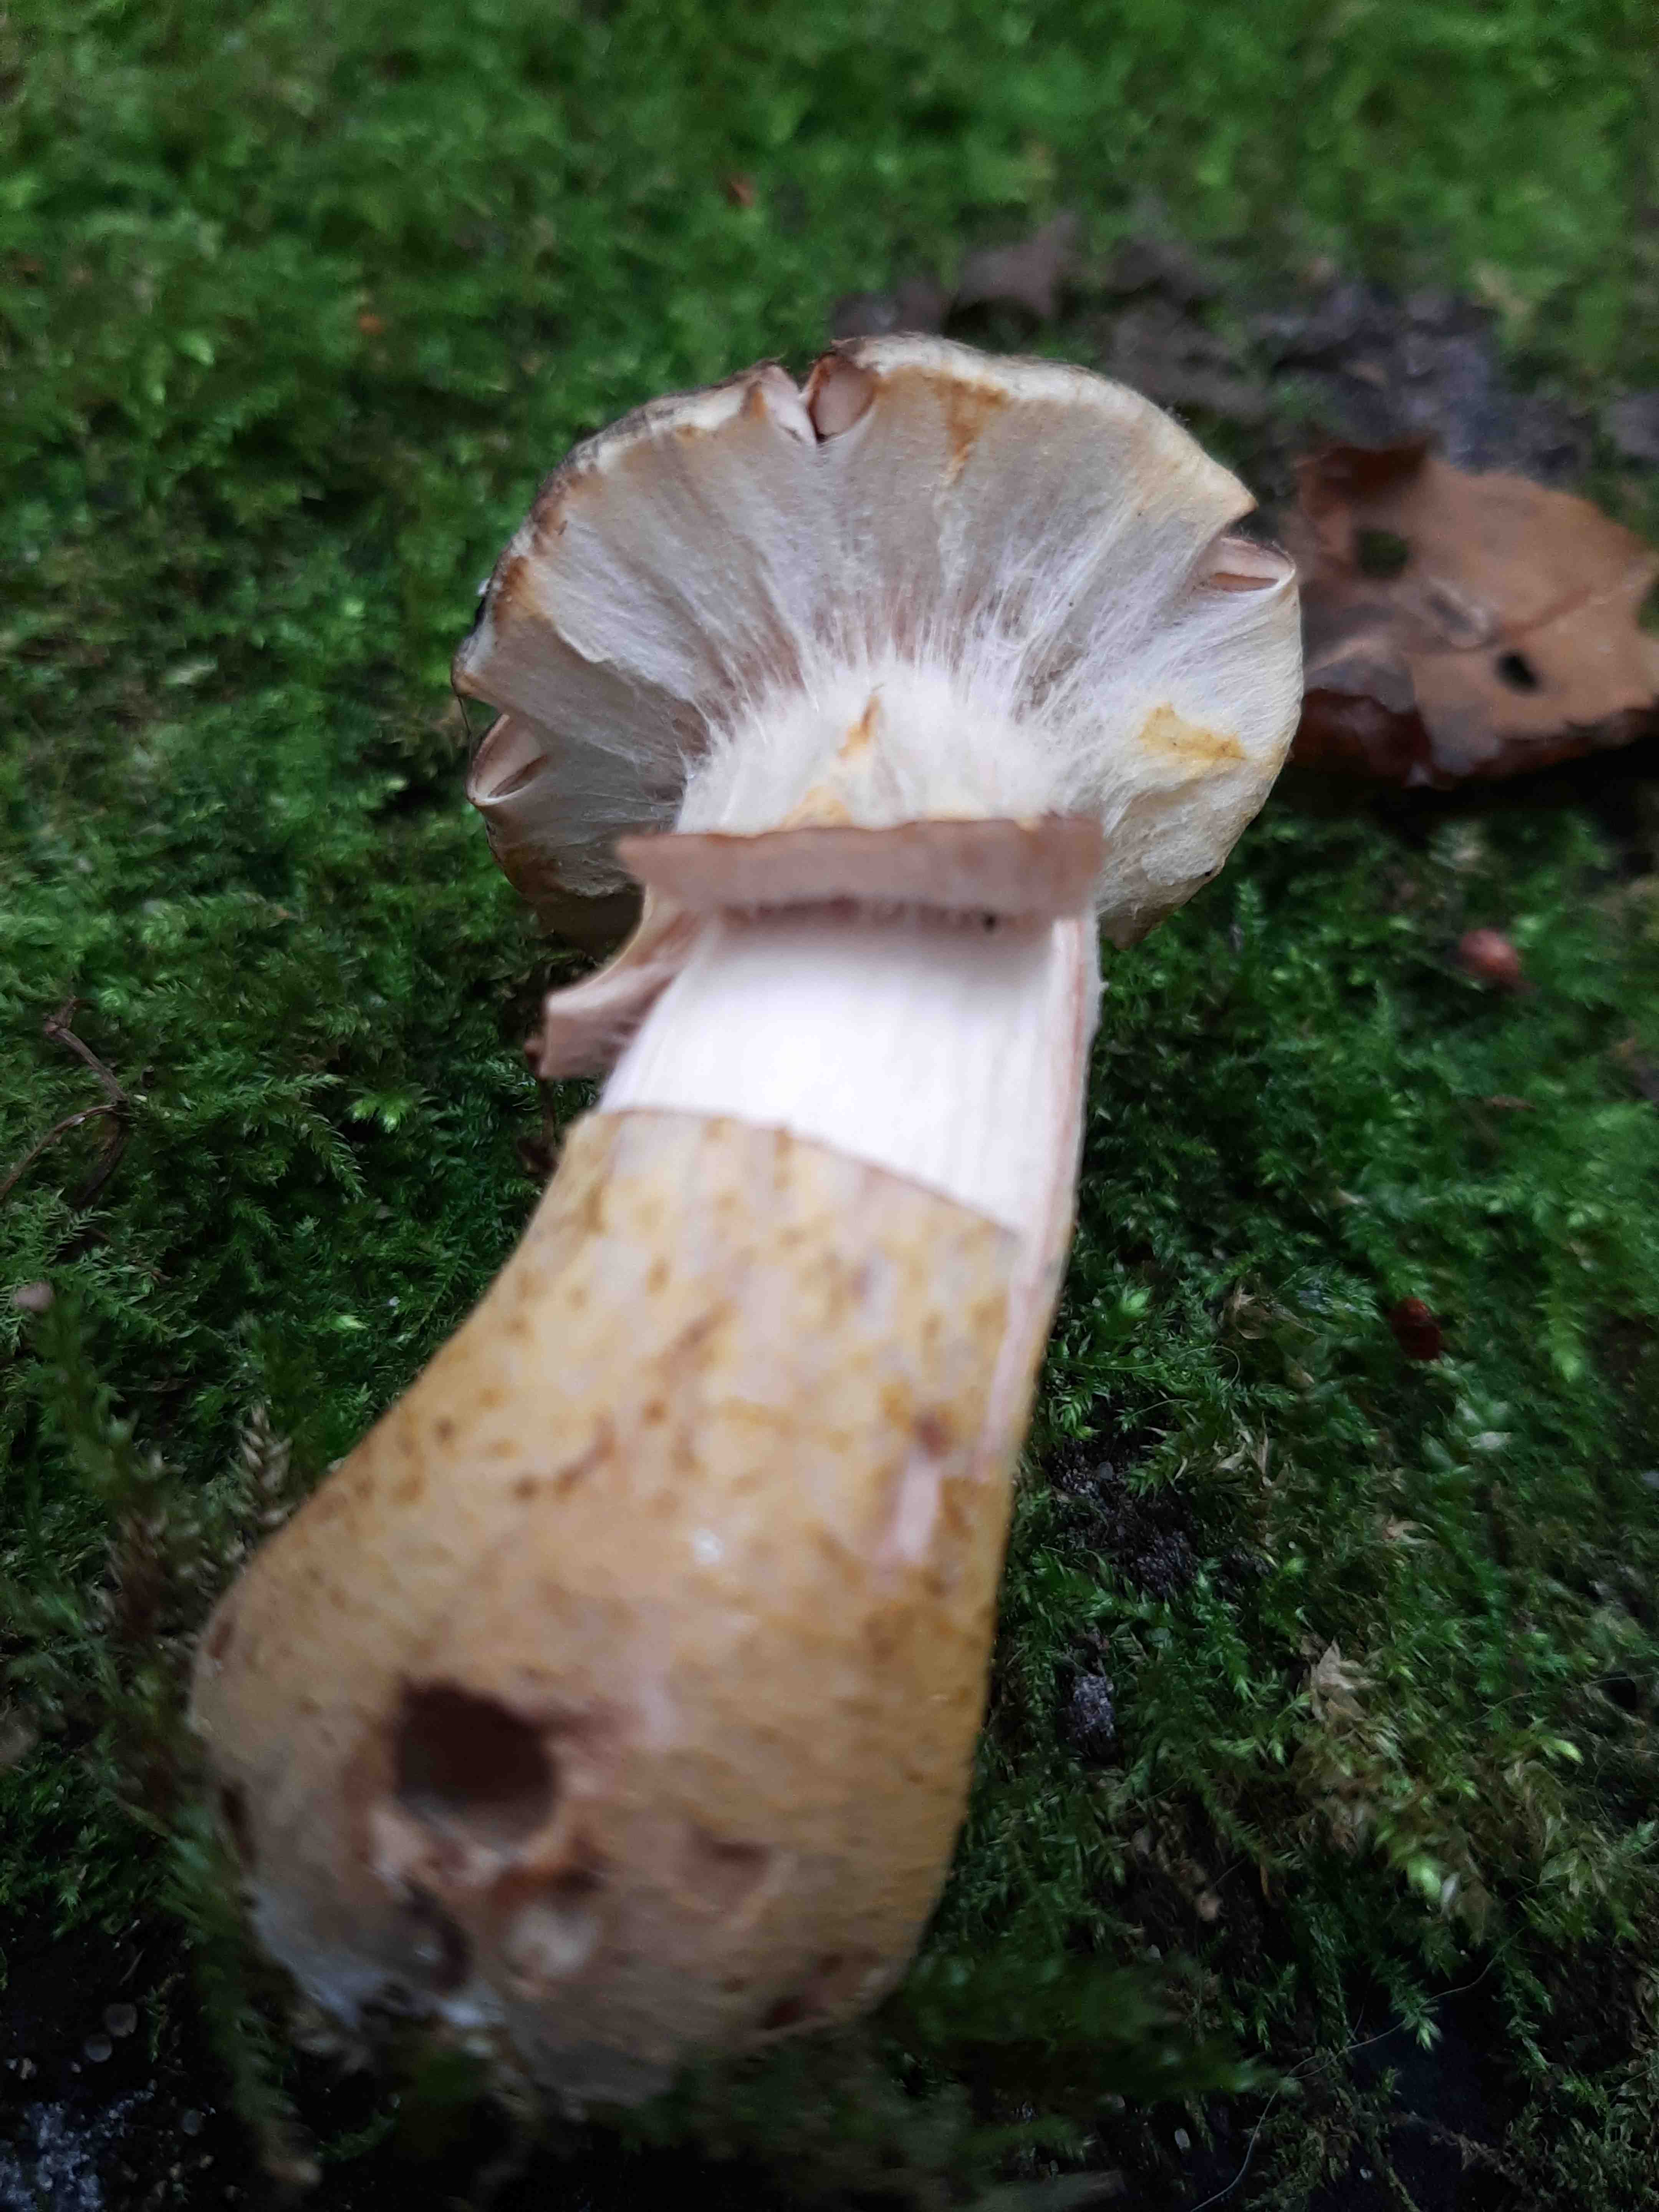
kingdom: Fungi
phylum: Basidiomycota
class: Agaricomycetes
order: Agaricales
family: Physalacriaceae
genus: Armillaria
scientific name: Armillaria lutea
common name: køllestokket honningsvamp
